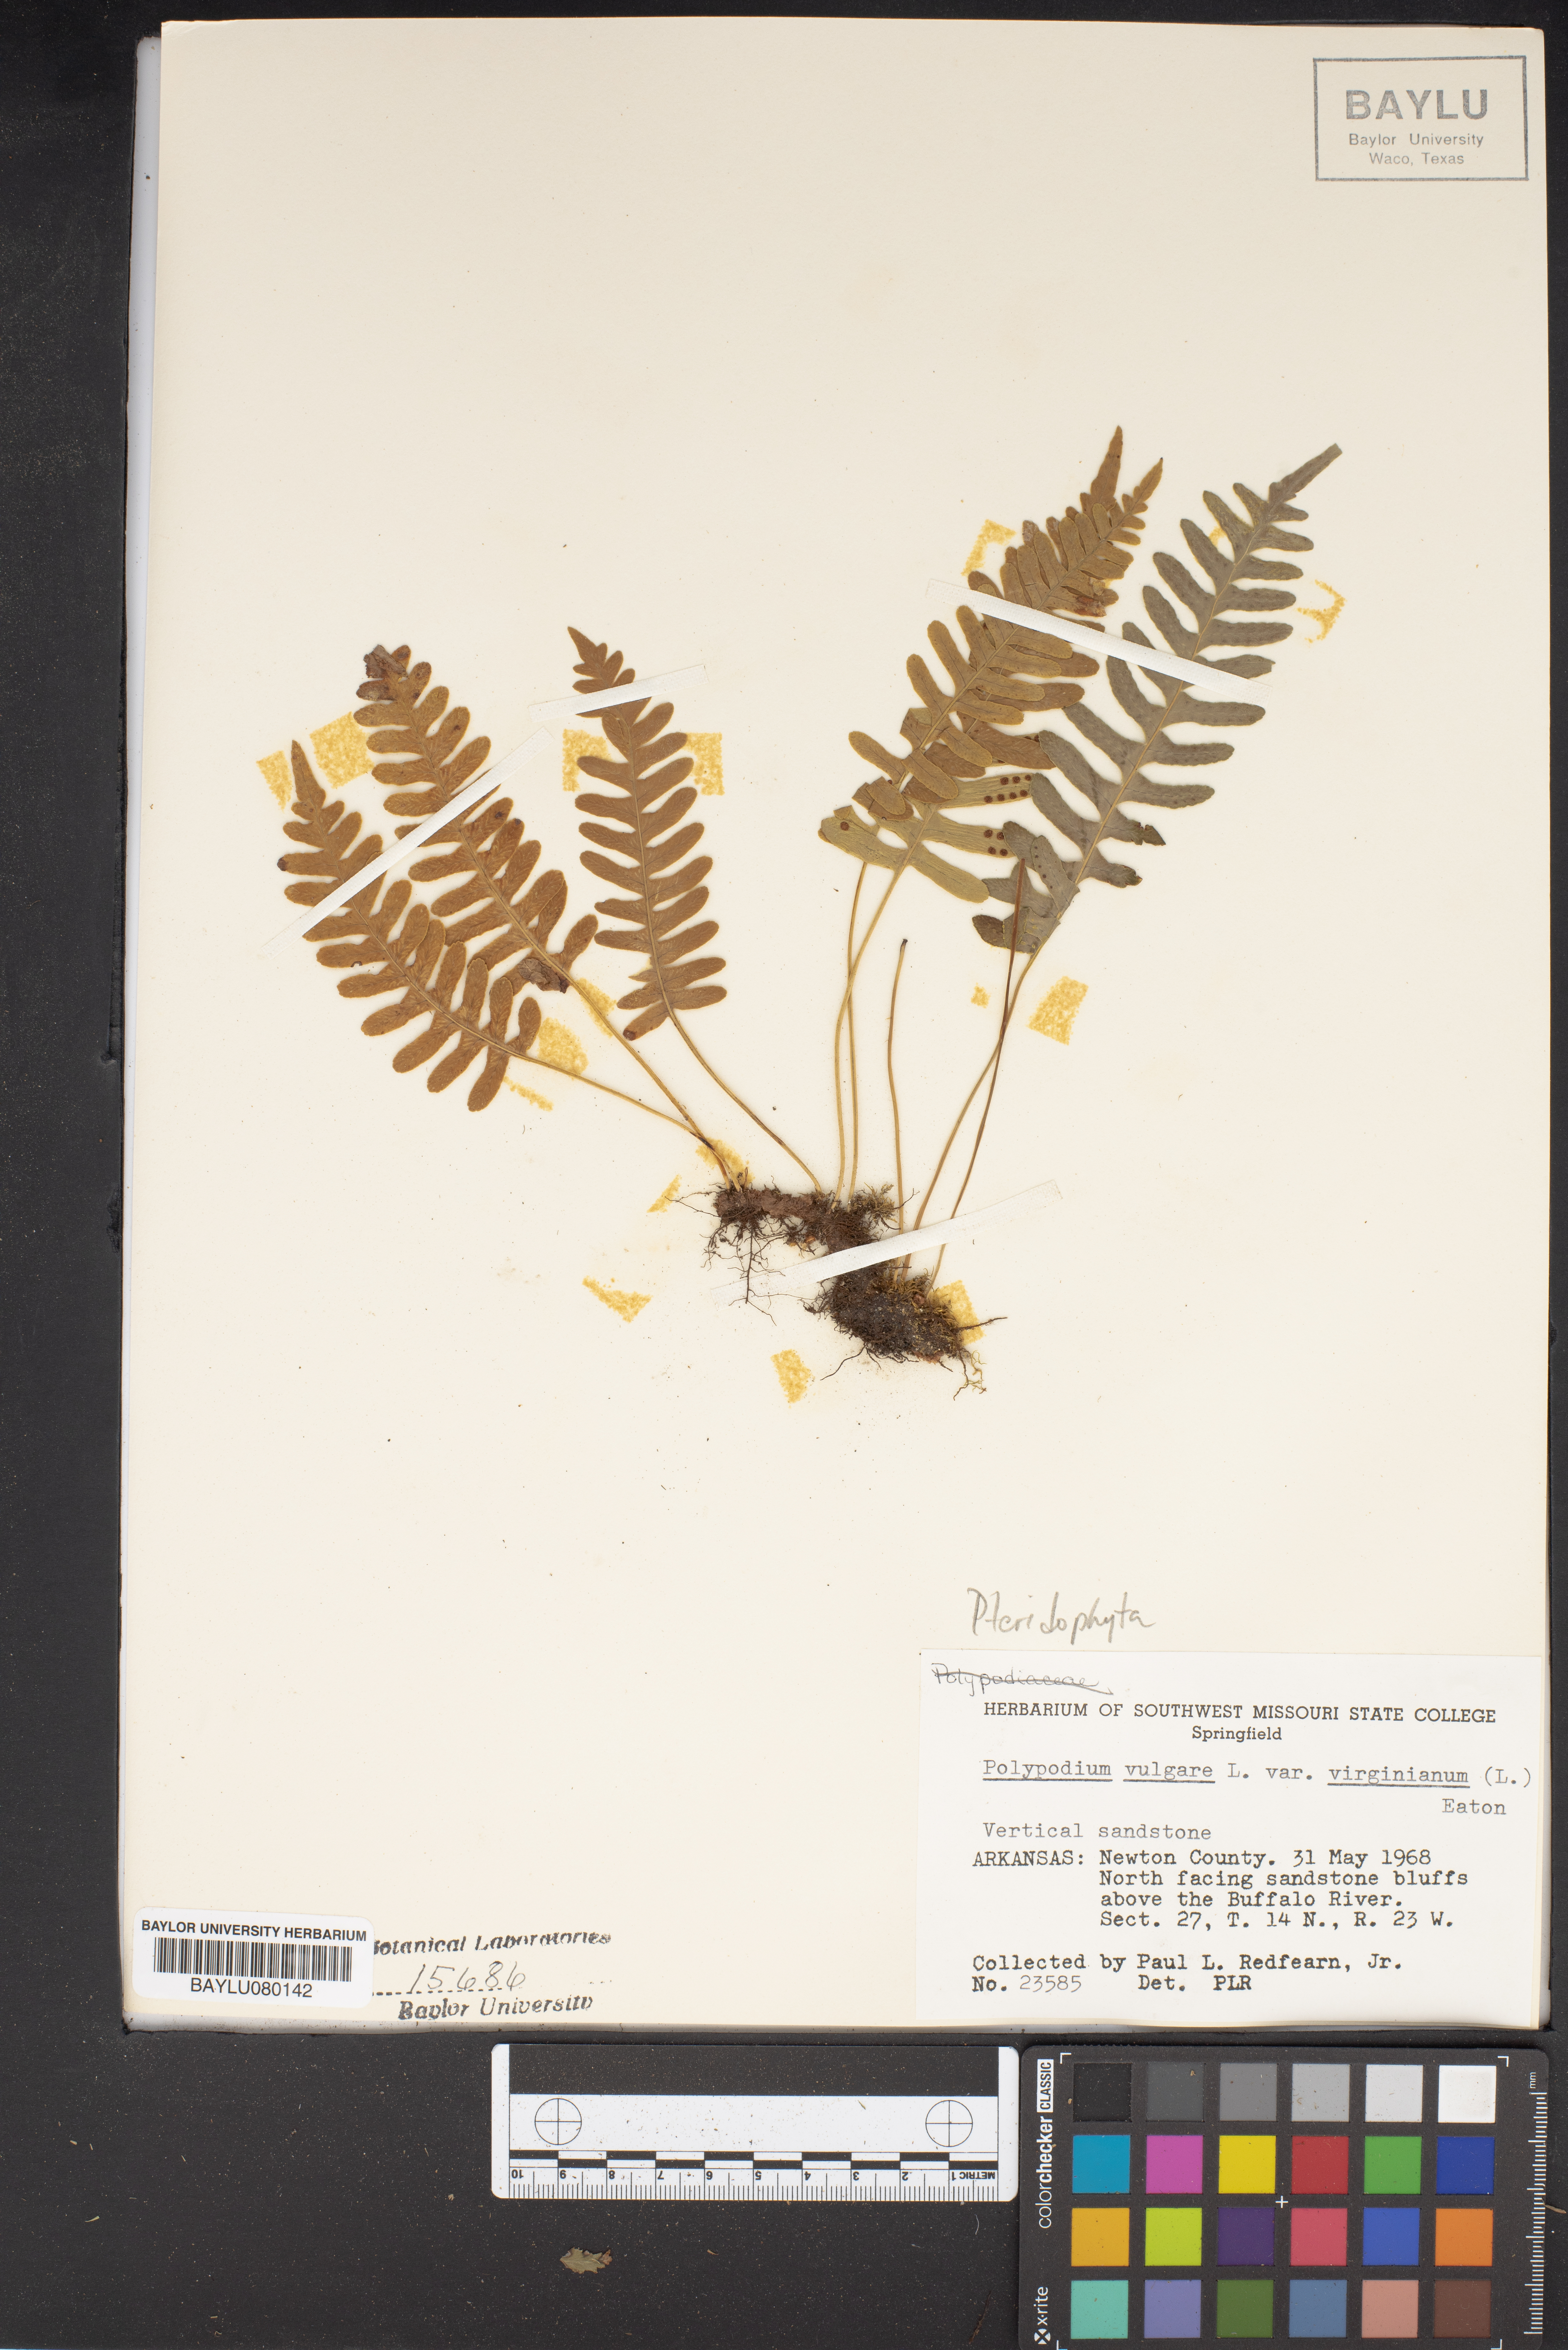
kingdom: Plantae
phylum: Tracheophyta
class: Polypodiopsida
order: Polypodiales
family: Polypodiaceae
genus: Polypodium
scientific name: Polypodium virginianum
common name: American wall fern
